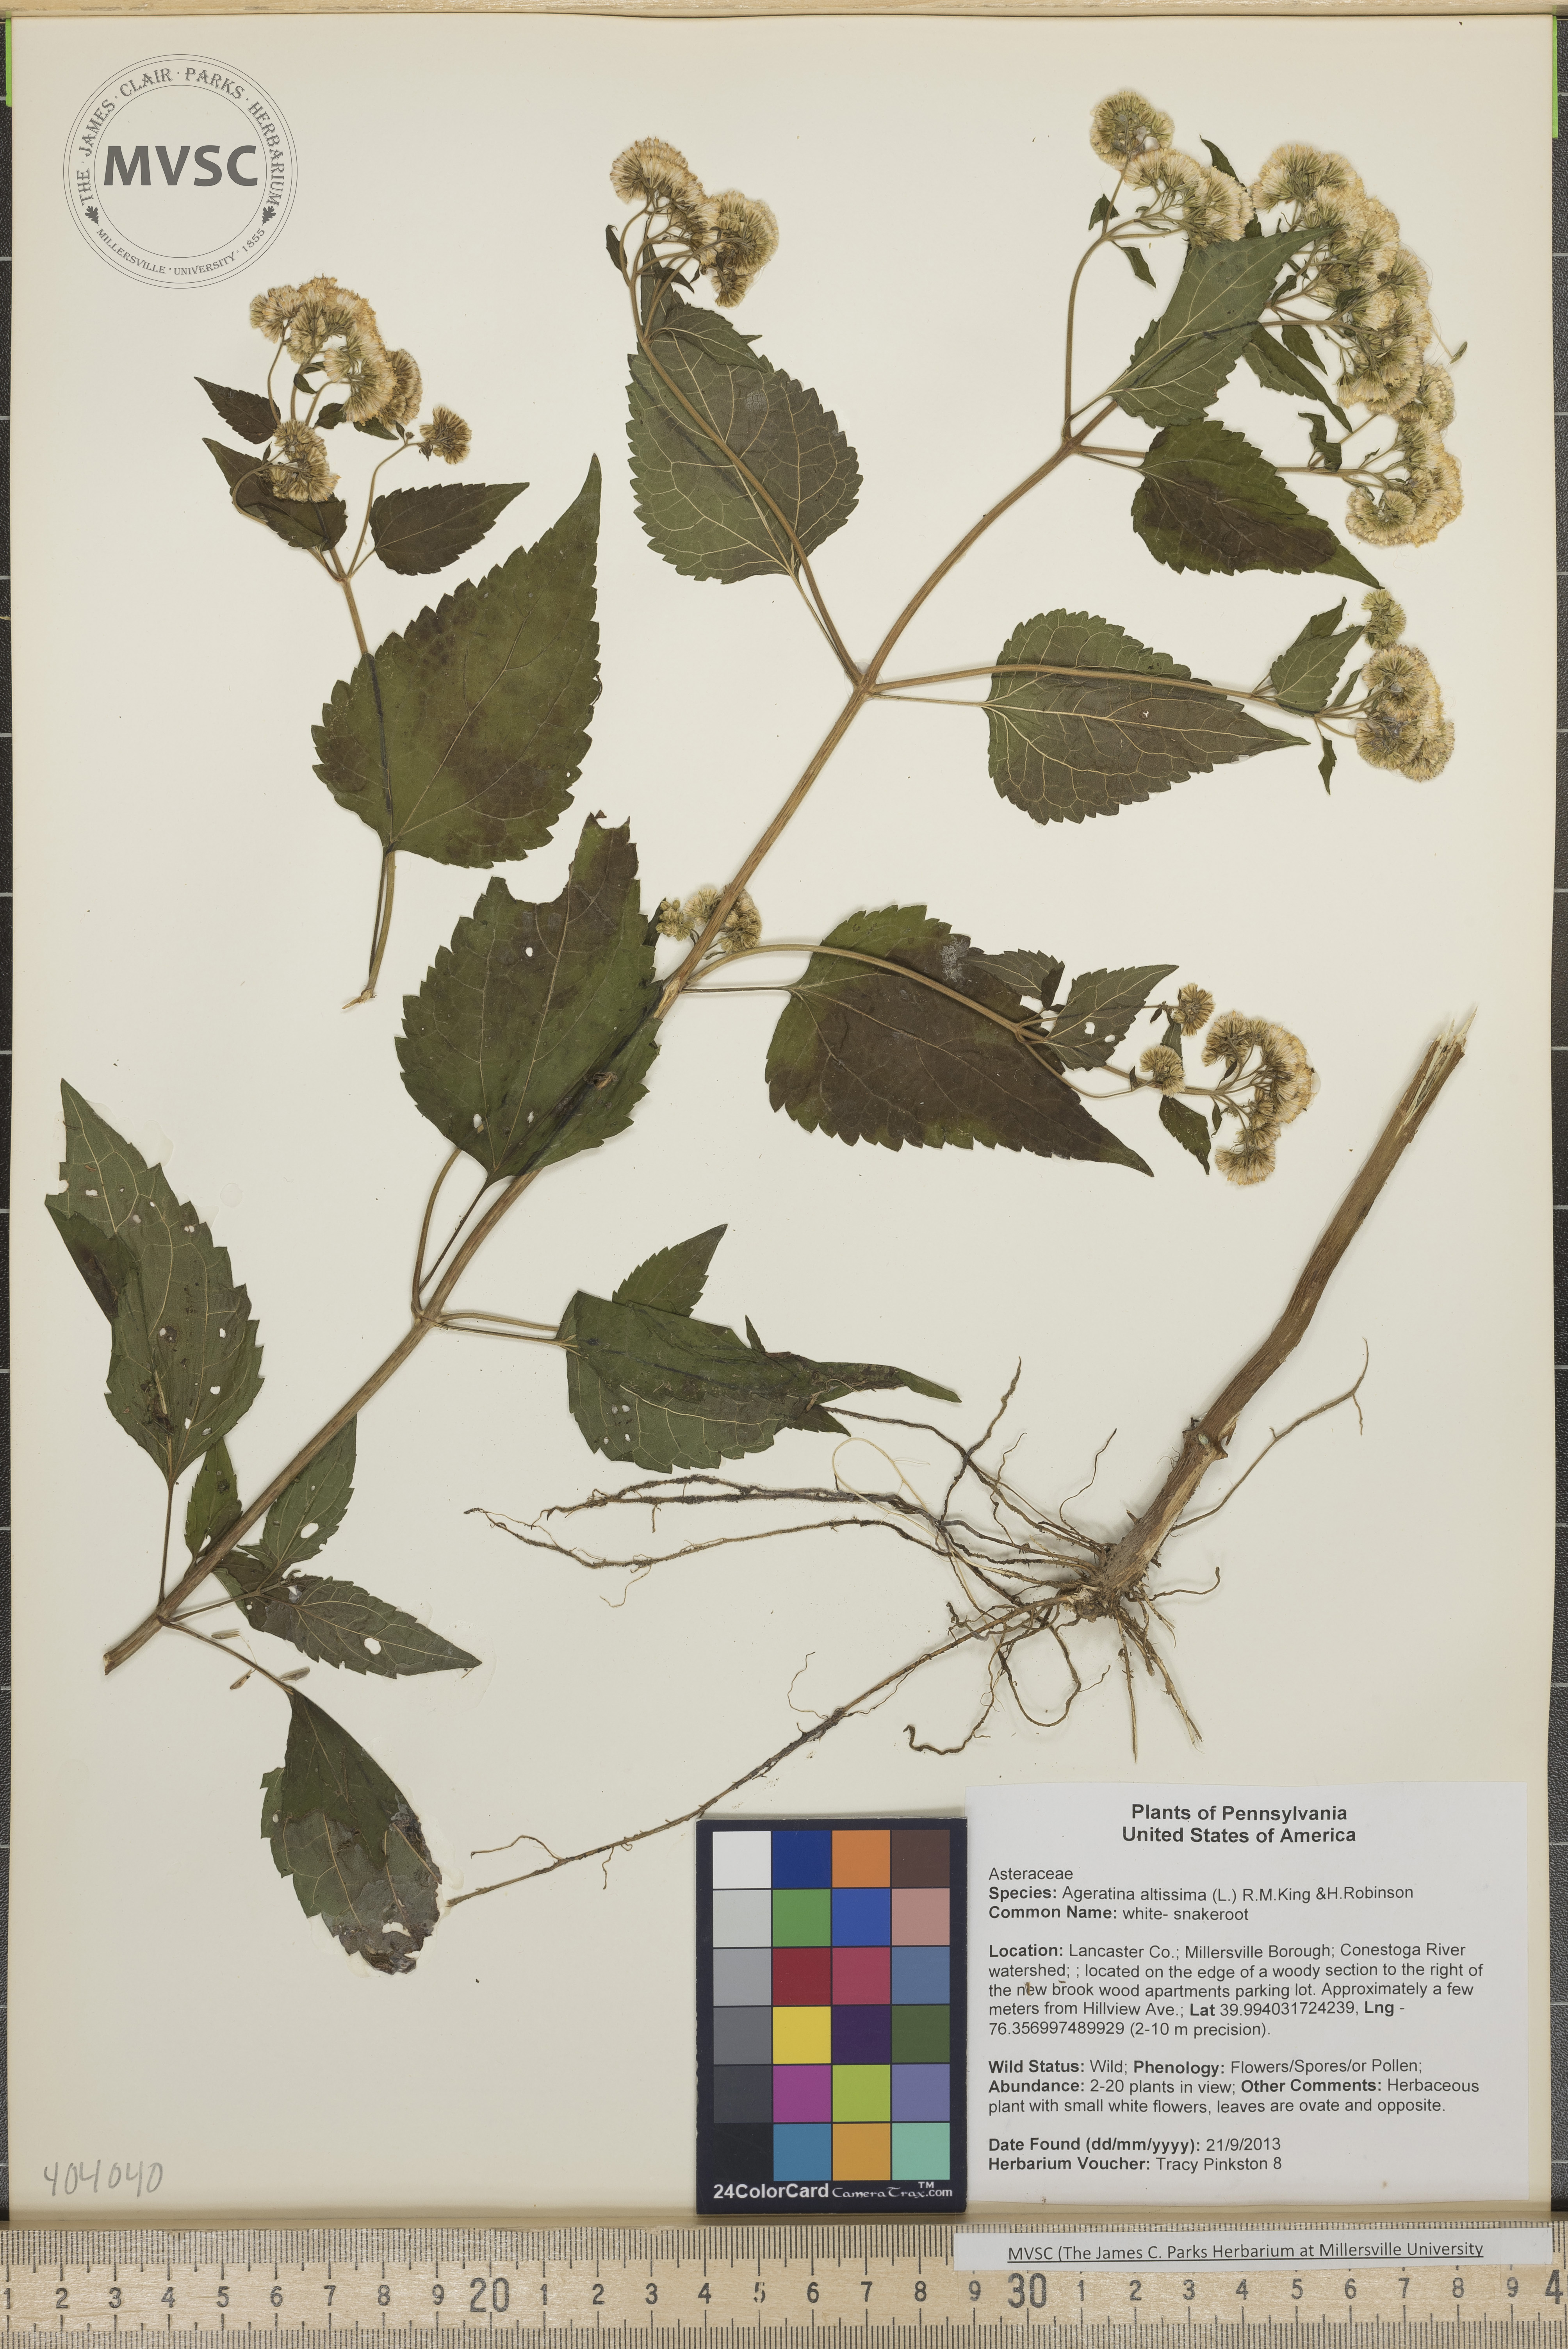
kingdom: Plantae
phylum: Tracheophyta
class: Magnoliopsida
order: Asterales
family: Asteraceae
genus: Ageratina
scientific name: Ageratina altissima
